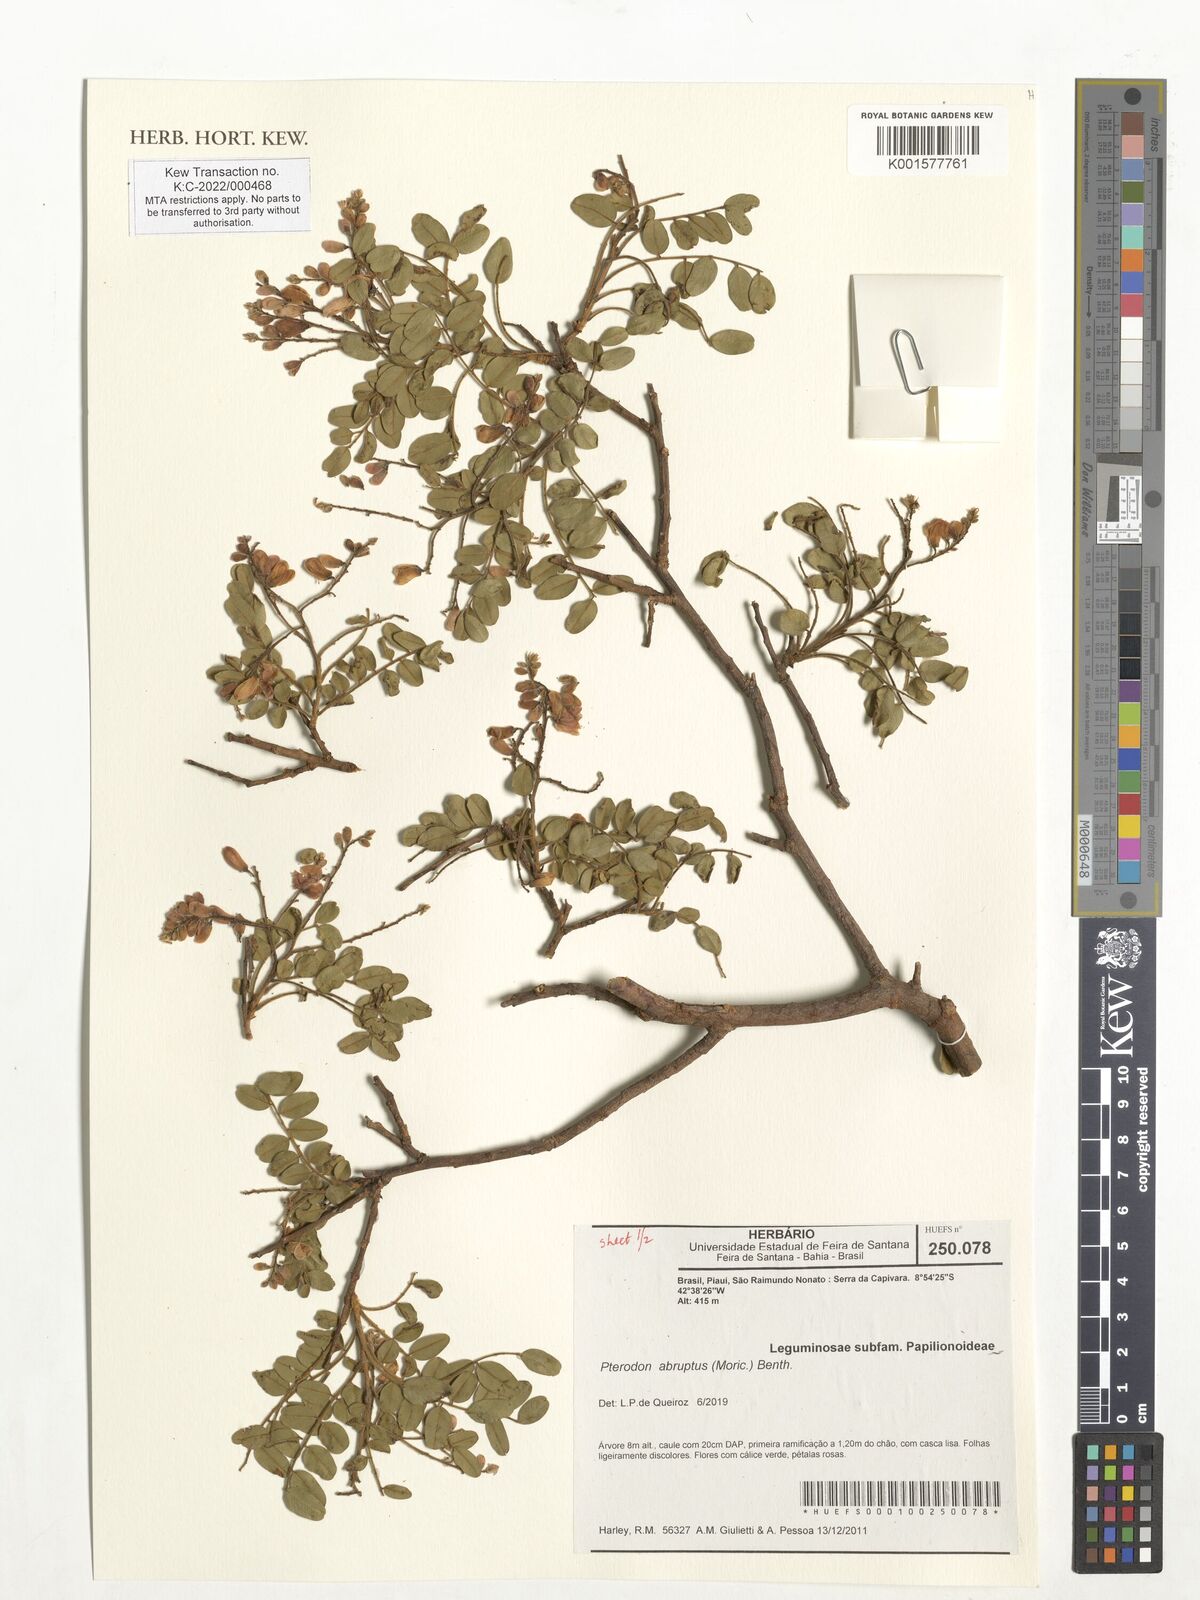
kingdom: Plantae
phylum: Tracheophyta
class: Magnoliopsida
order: Fabales
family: Fabaceae
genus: Pterodon
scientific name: Pterodon abruptus
